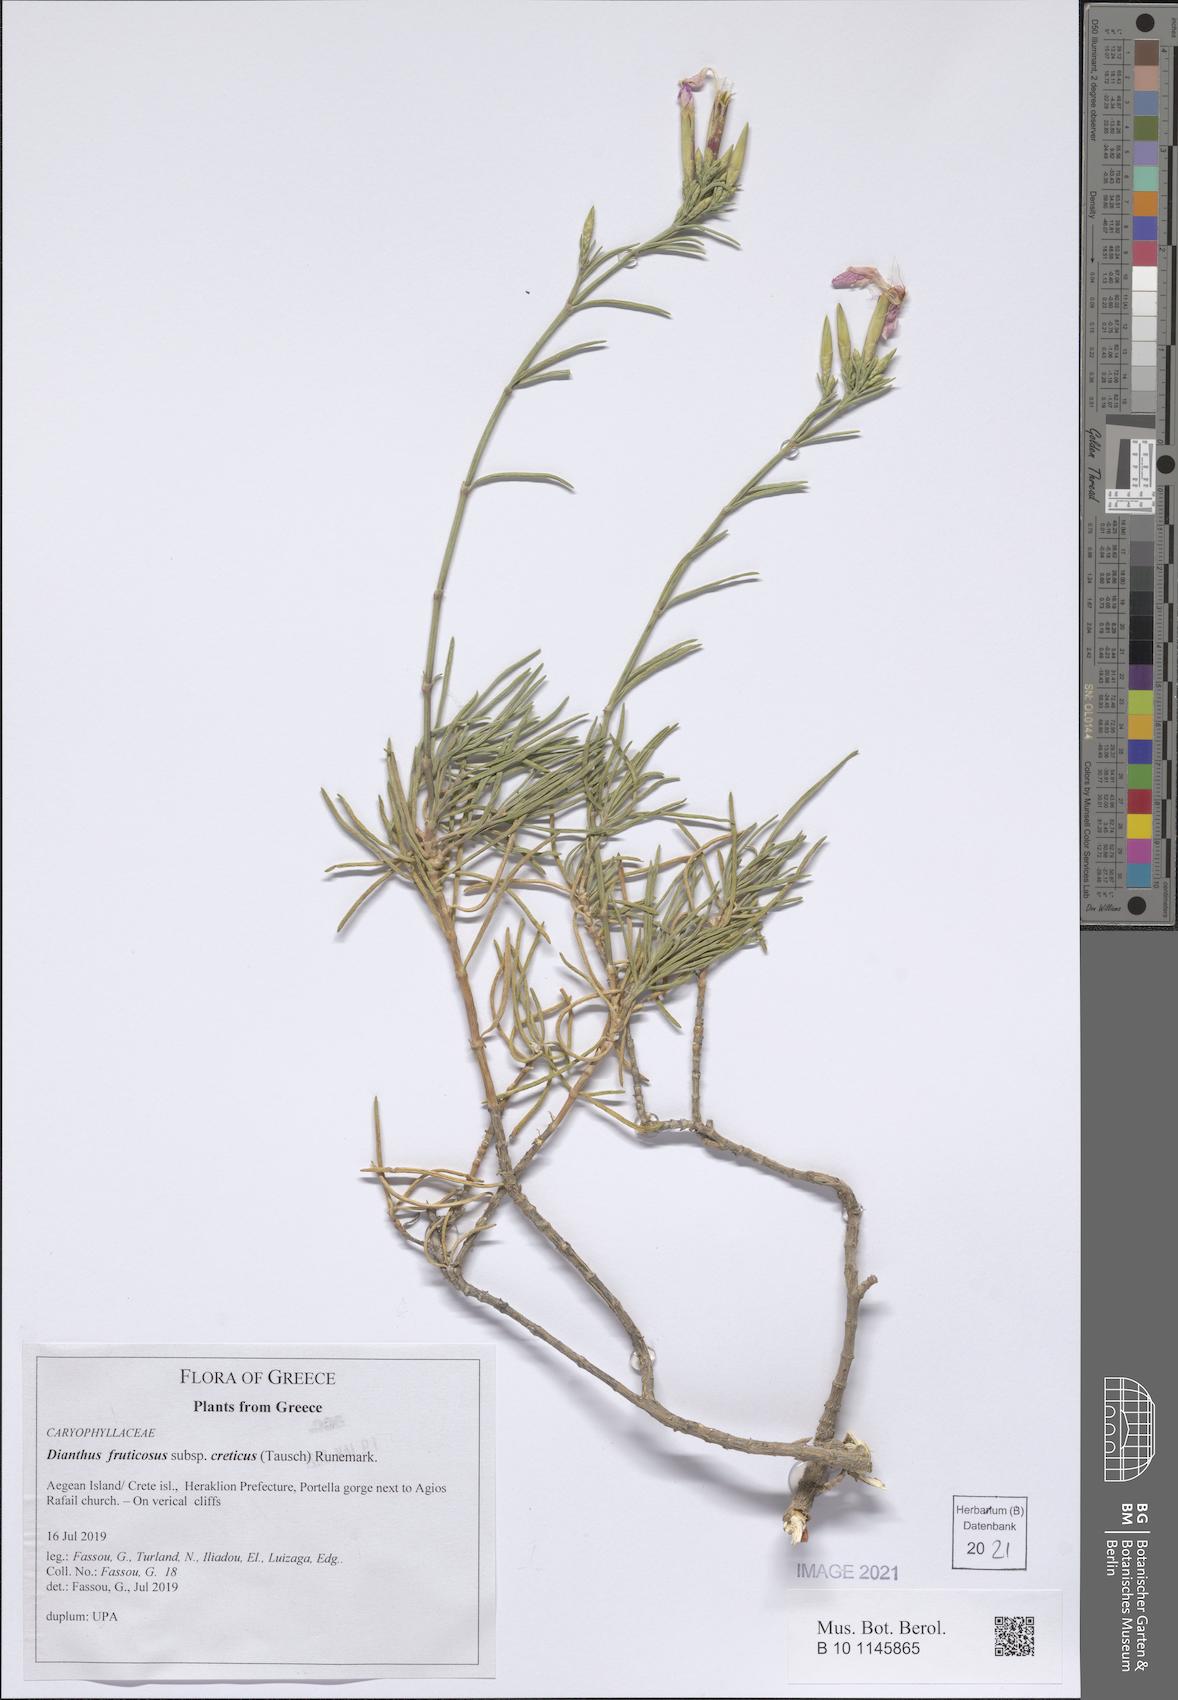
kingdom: Plantae
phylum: Tracheophyta
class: Magnoliopsida
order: Caryophyllales
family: Caryophyllaceae
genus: Dianthus
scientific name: Dianthus fruticosus
